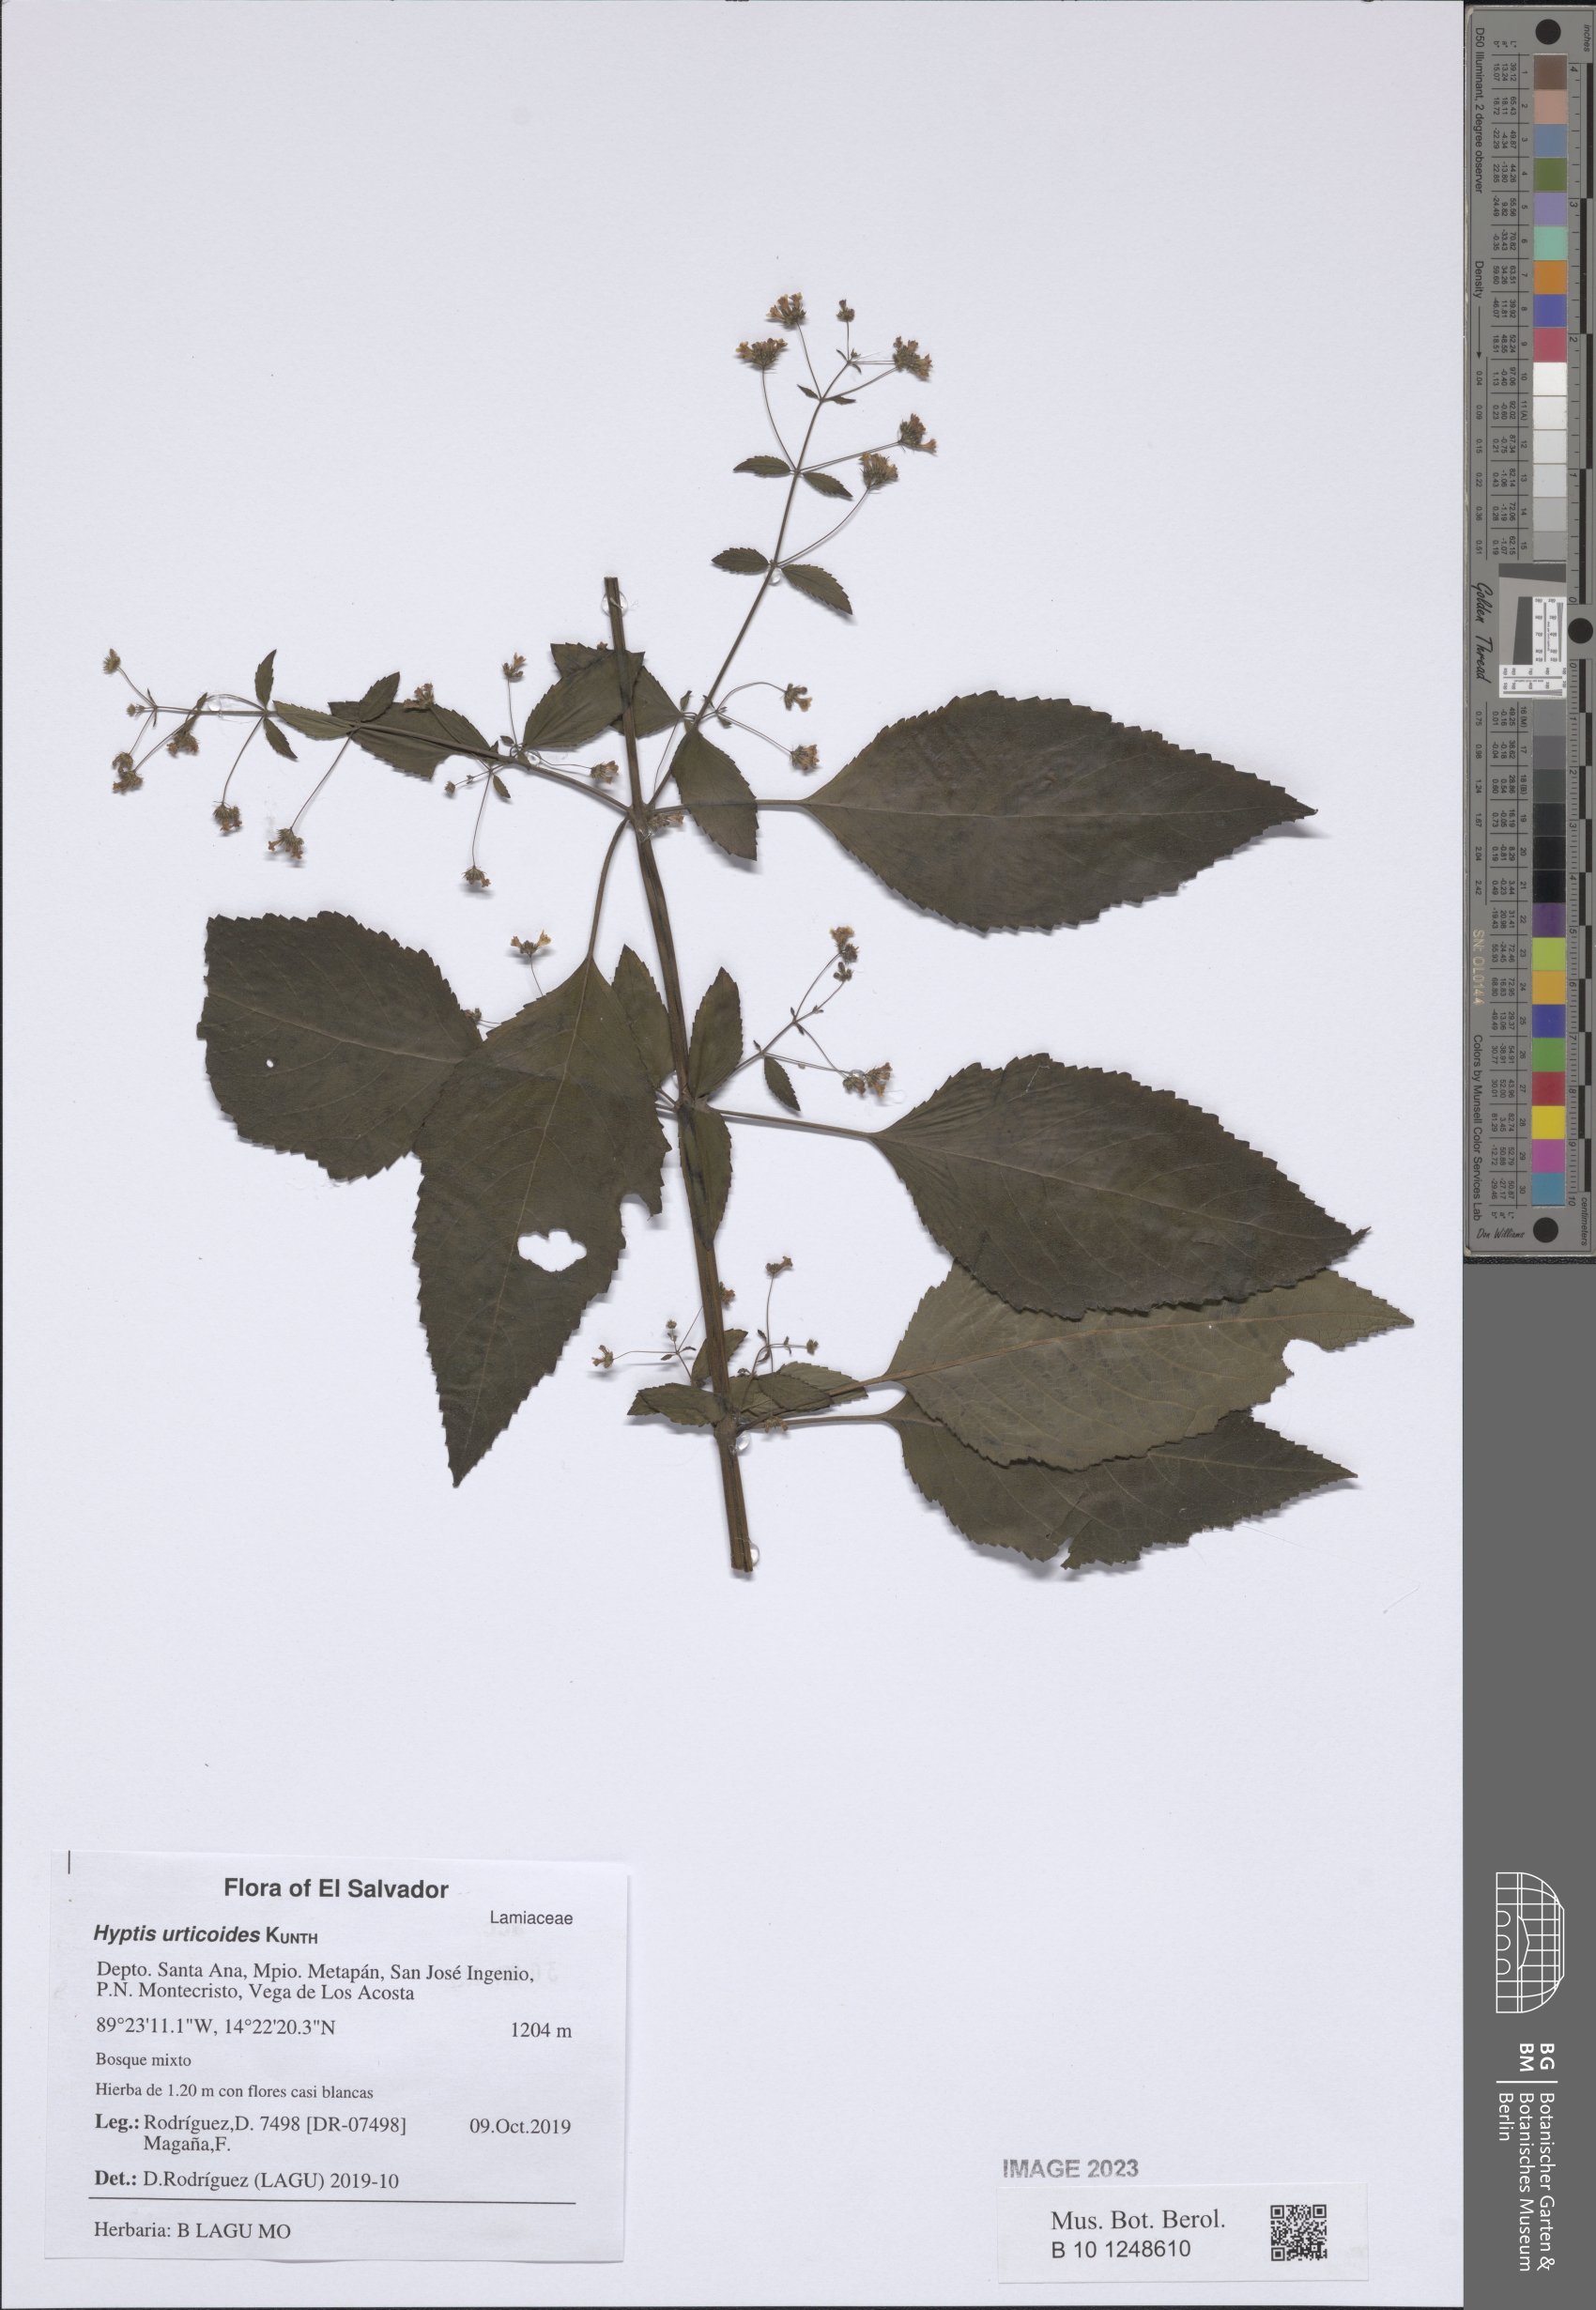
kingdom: Plantae
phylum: Tracheophyta
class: Magnoliopsida
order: Lamiales
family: Lamiaceae
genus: Mesosphaerum
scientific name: Mesosphaerum urticoides
